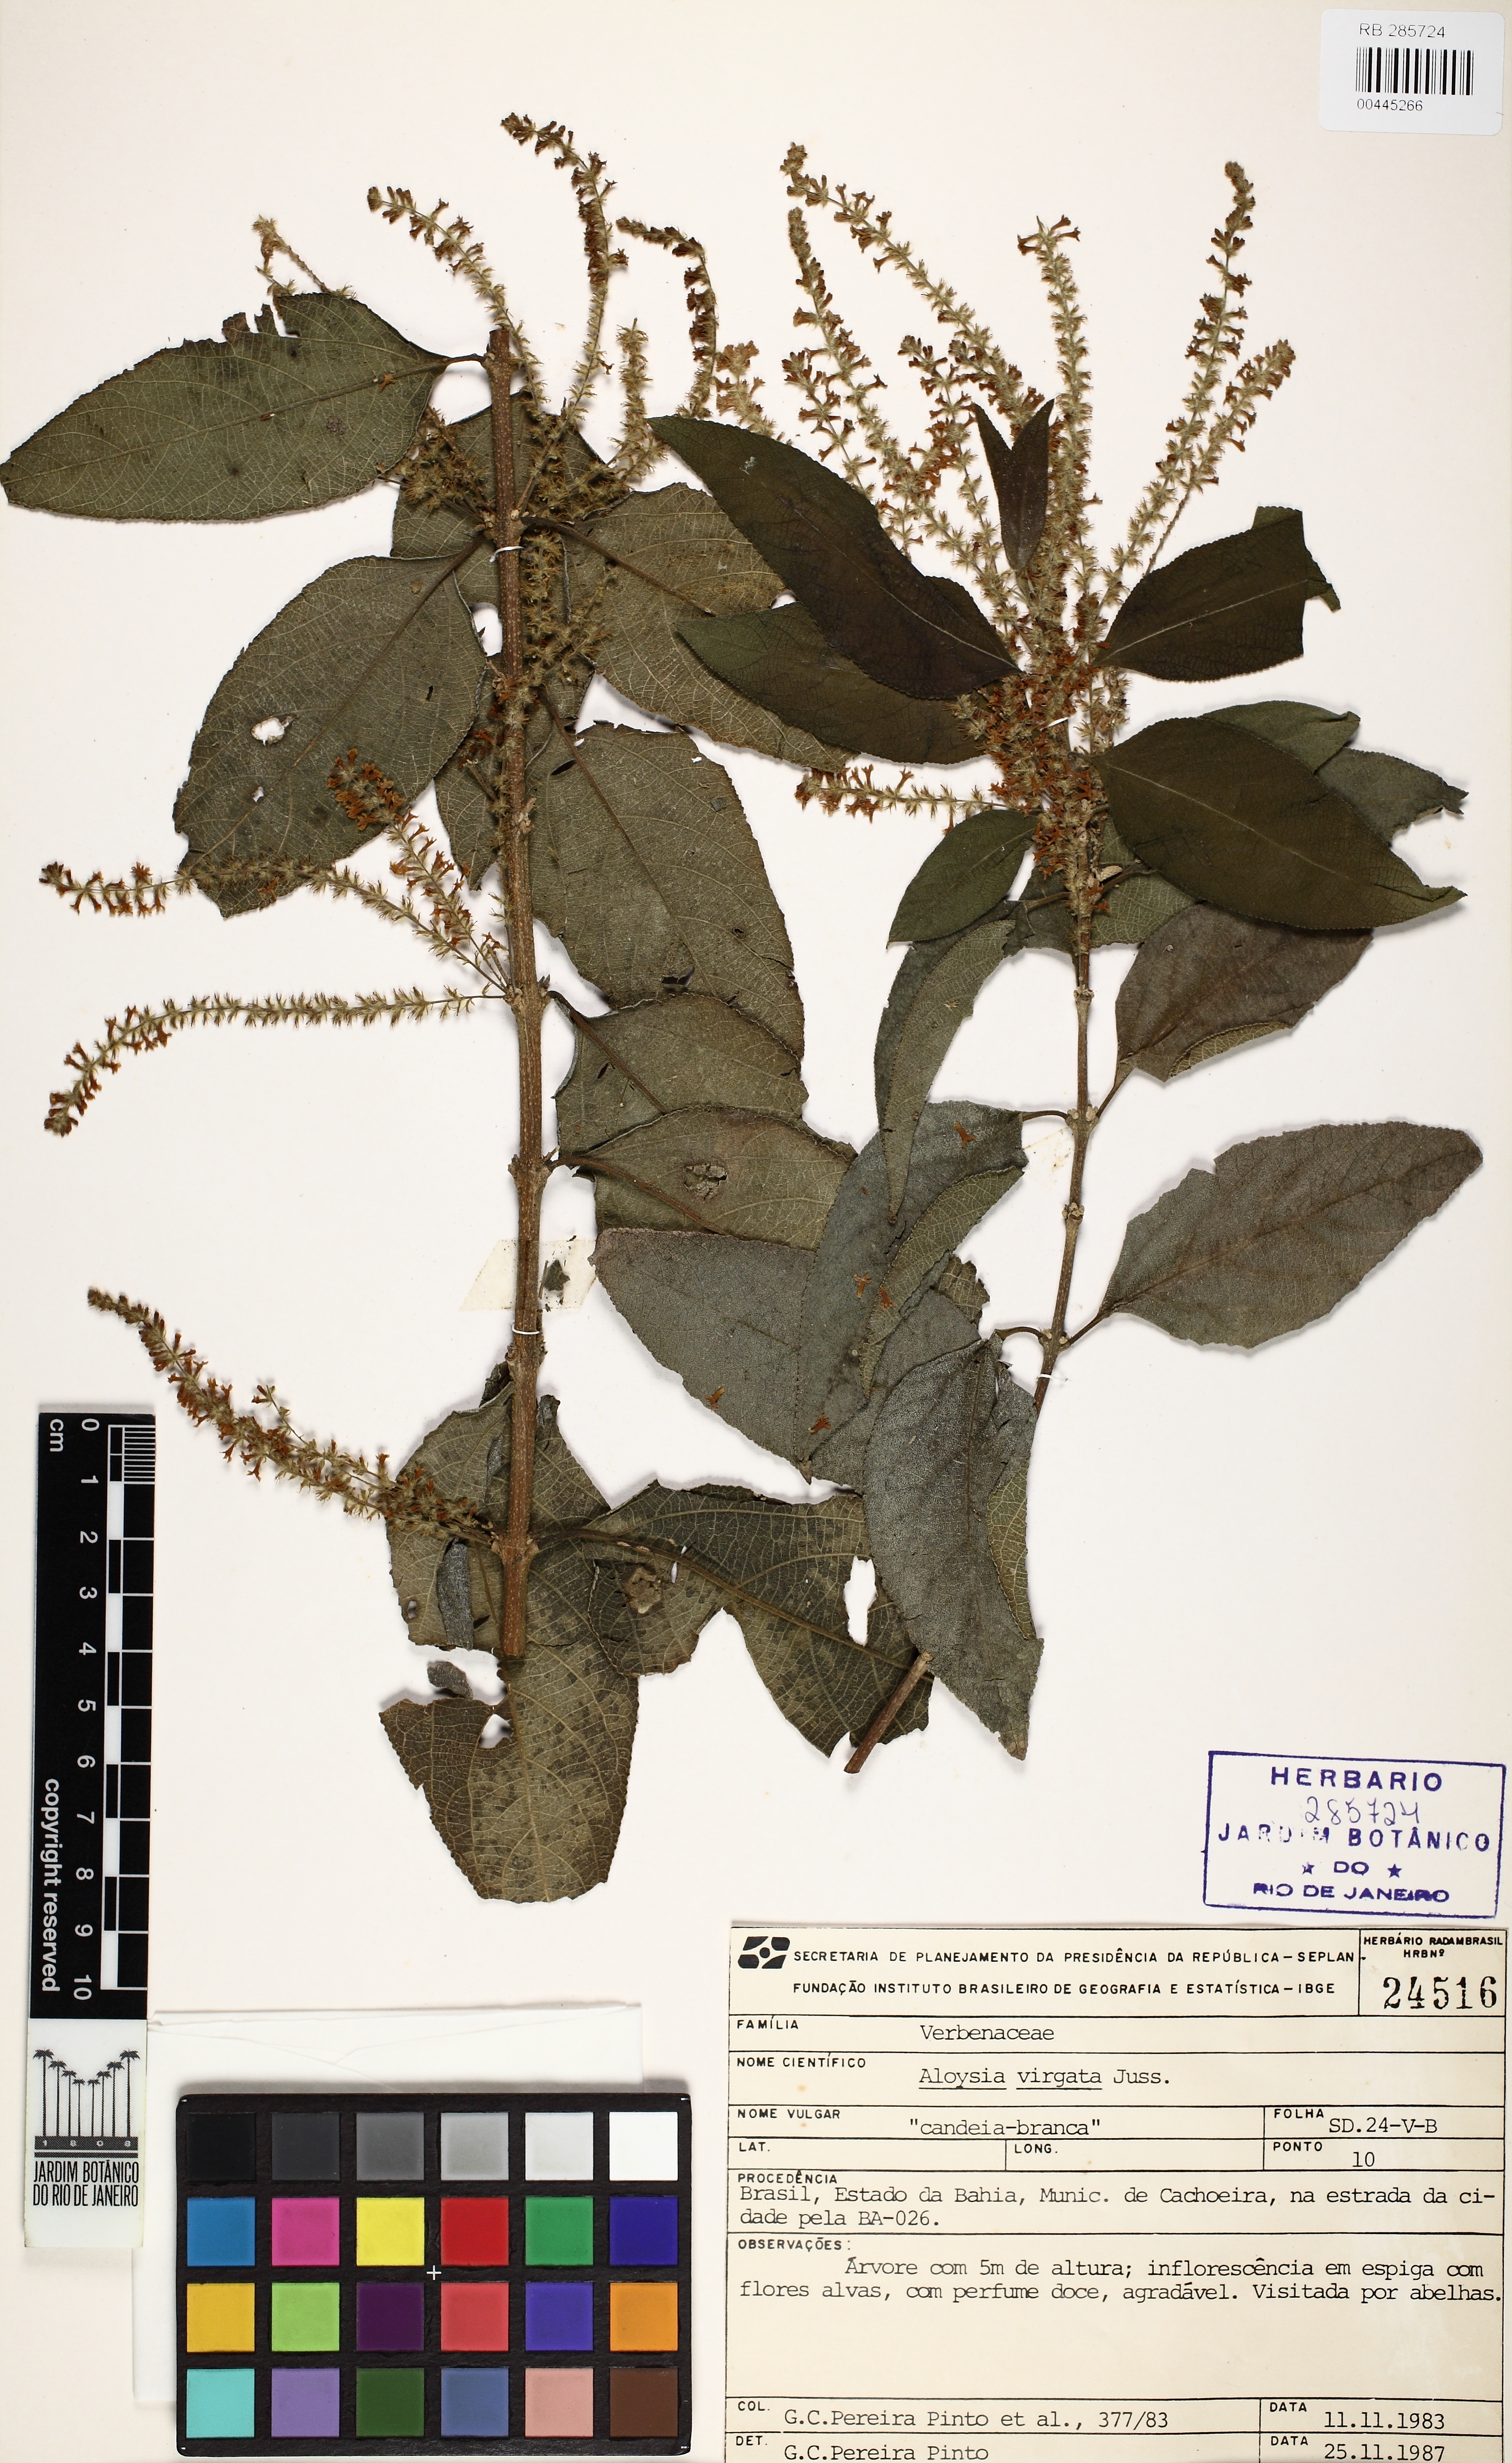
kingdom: Plantae
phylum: Tracheophyta
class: Magnoliopsida
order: Lamiales
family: Verbenaceae
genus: Aloysia
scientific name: Aloysia virgata
